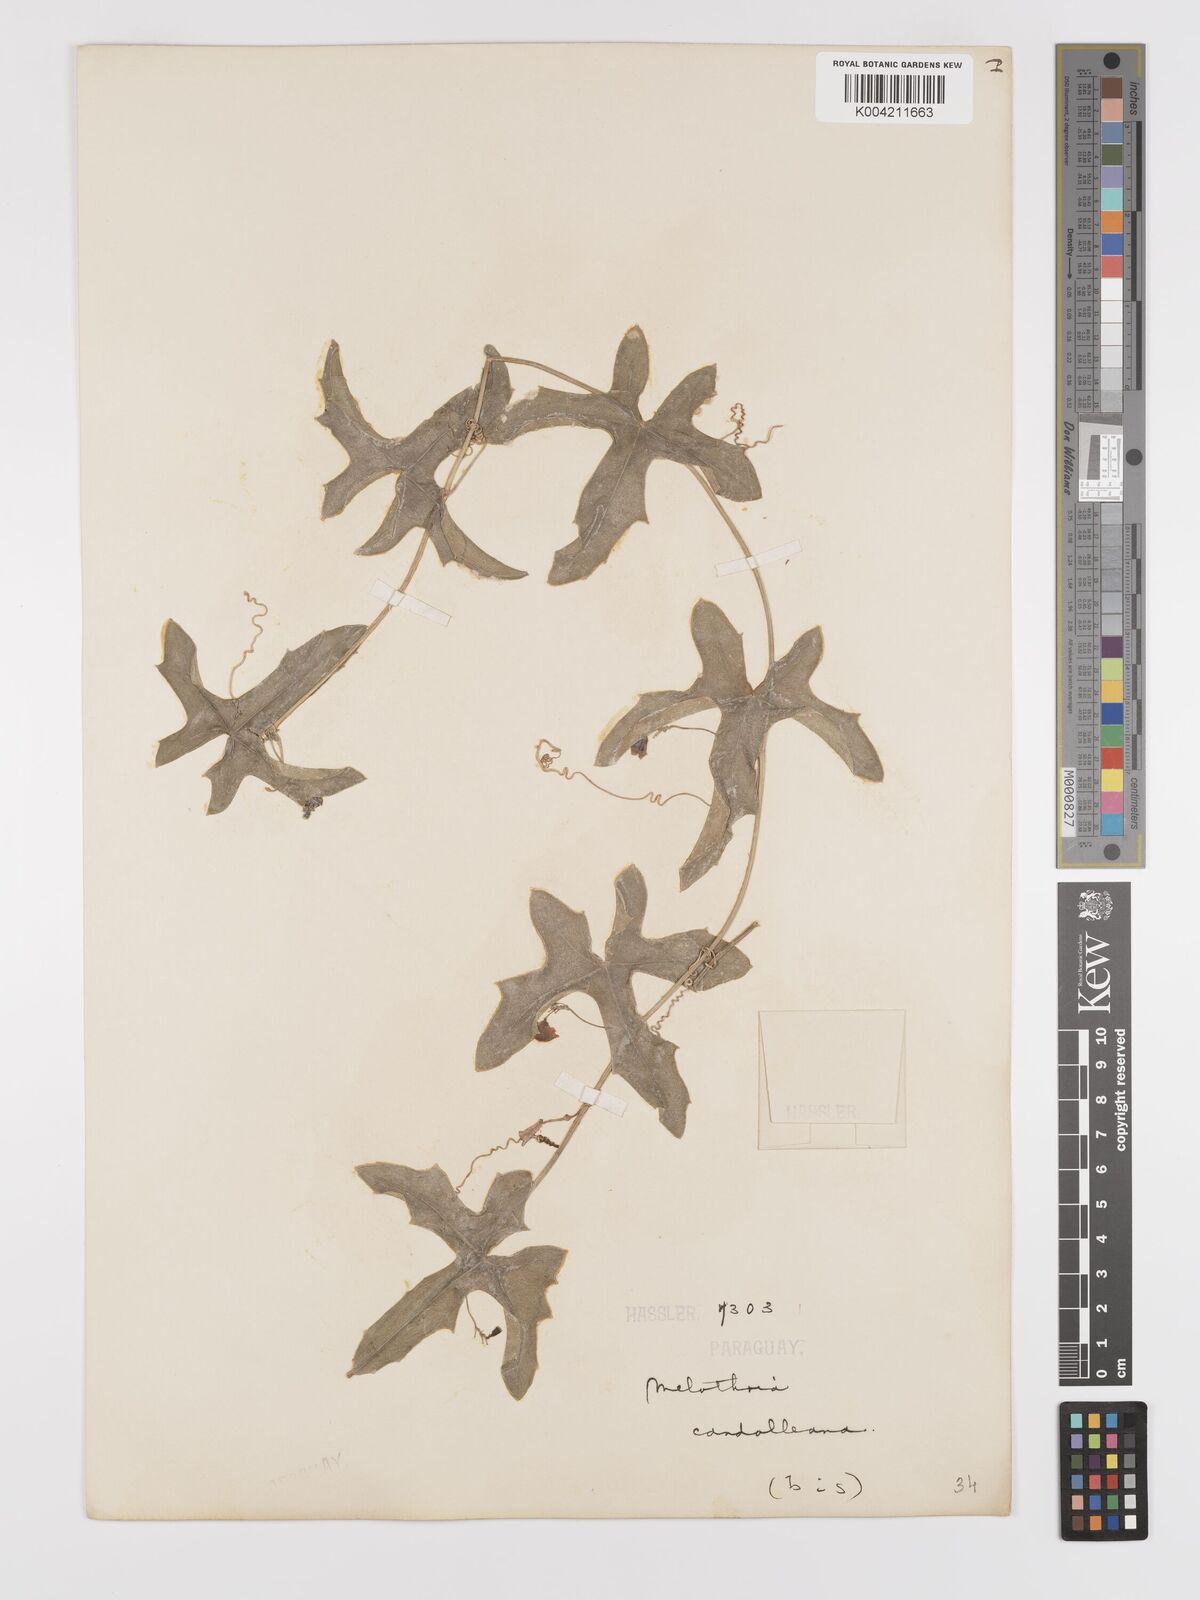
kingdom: Plantae
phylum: Tracheophyta
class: Magnoliopsida
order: Cucurbitales
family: Cucurbitaceae
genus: Melothria
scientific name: Melothria candolleana
